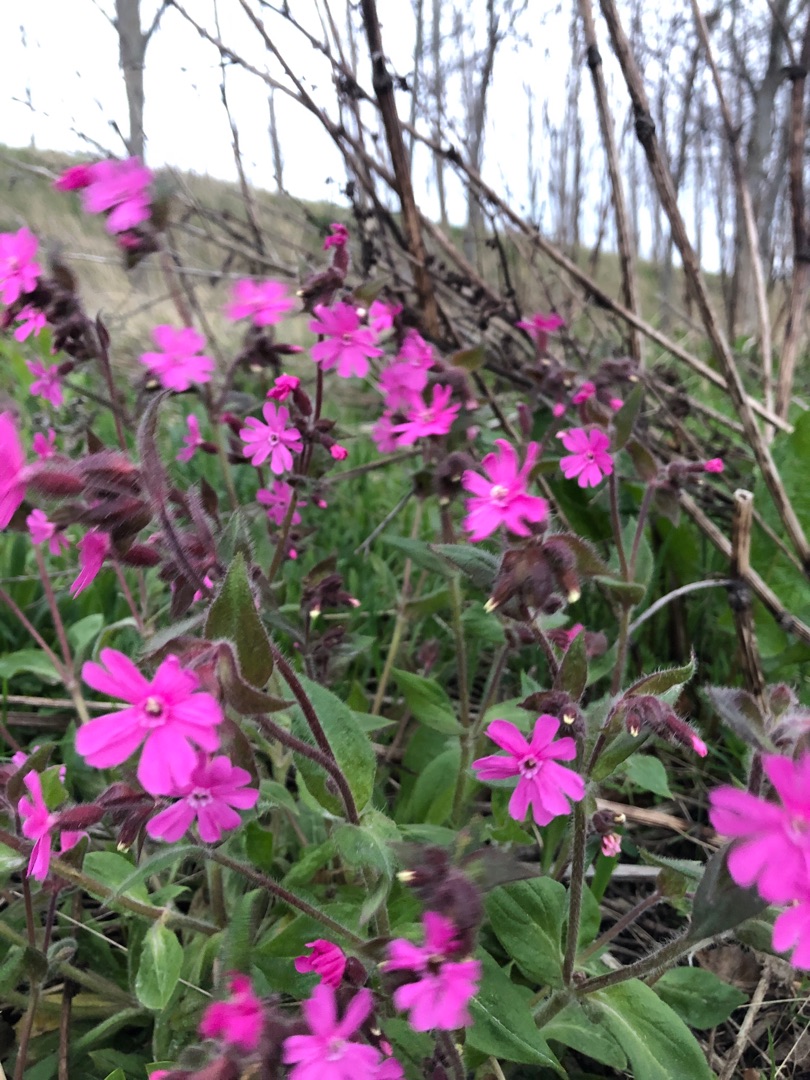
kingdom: Plantae
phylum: Tracheophyta
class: Magnoliopsida
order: Caryophyllales
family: Caryophyllaceae
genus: Silene
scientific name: Silene dioica
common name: Dagpragtstjerne
